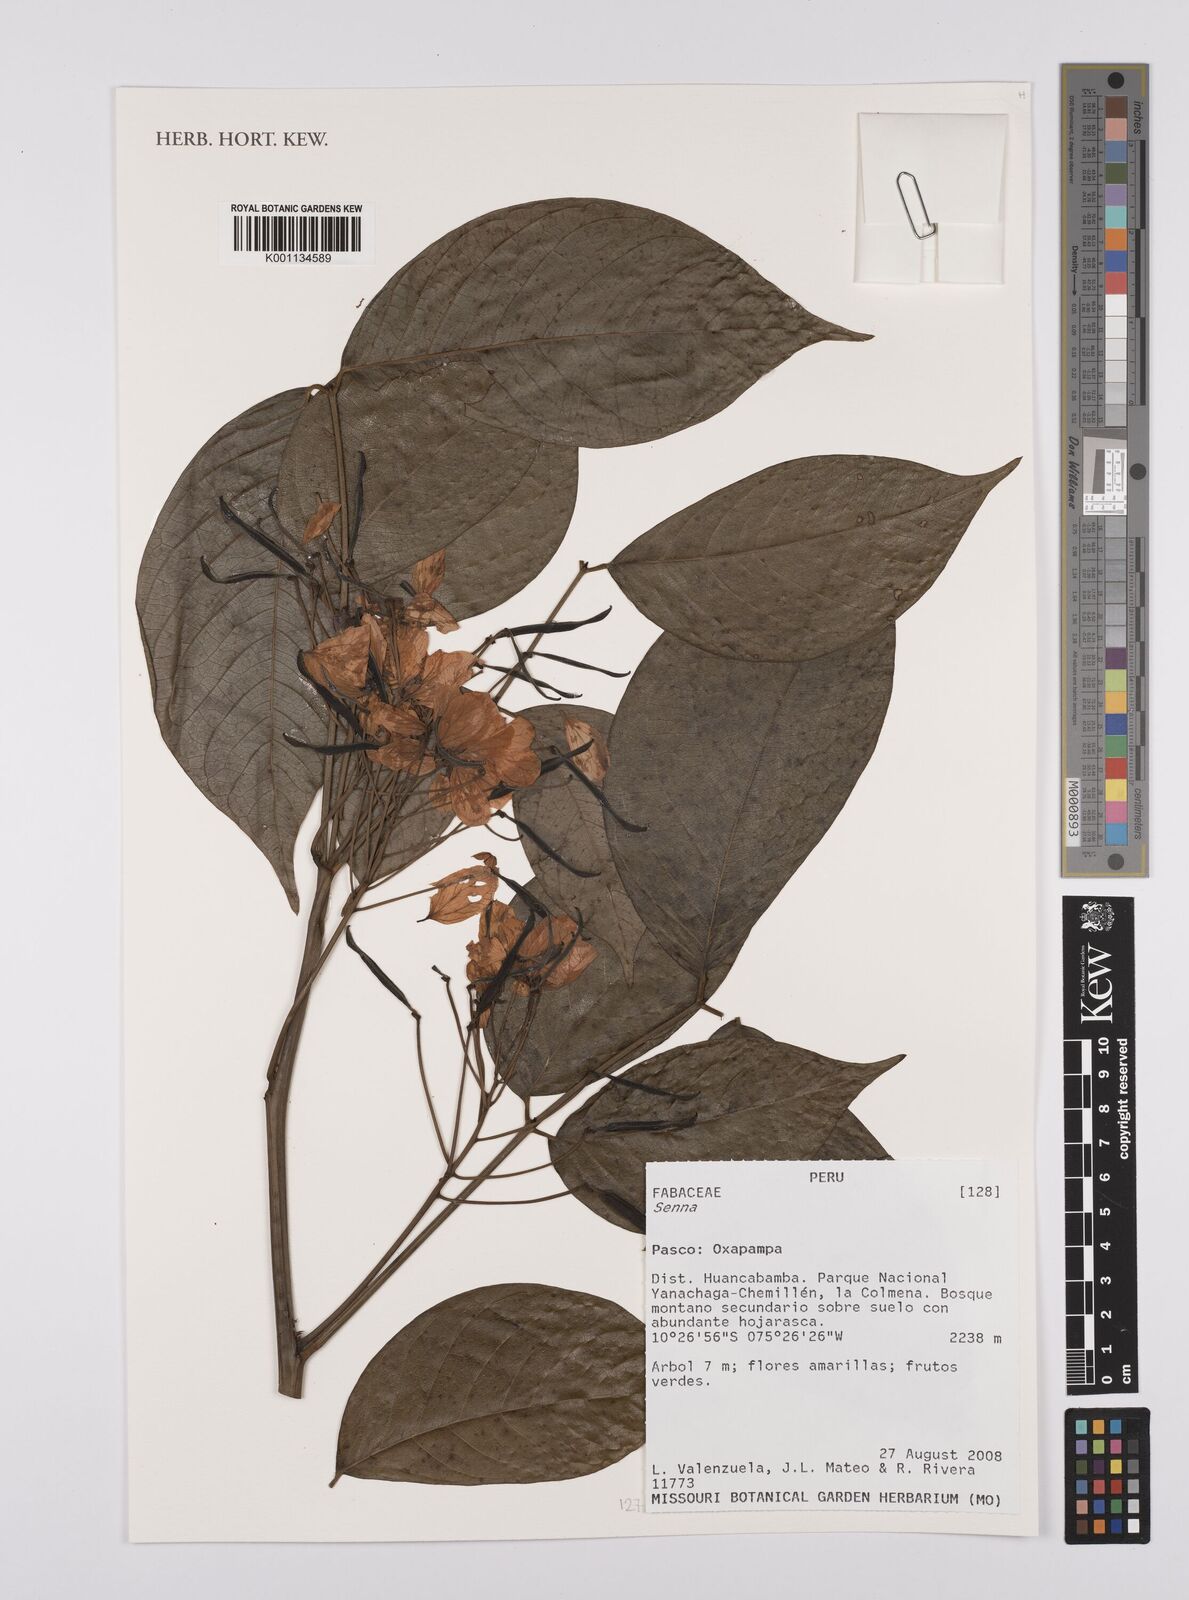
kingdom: Plantae
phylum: Tracheophyta
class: Magnoliopsida
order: Fabales
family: Fabaceae
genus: Senna
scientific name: Senna
